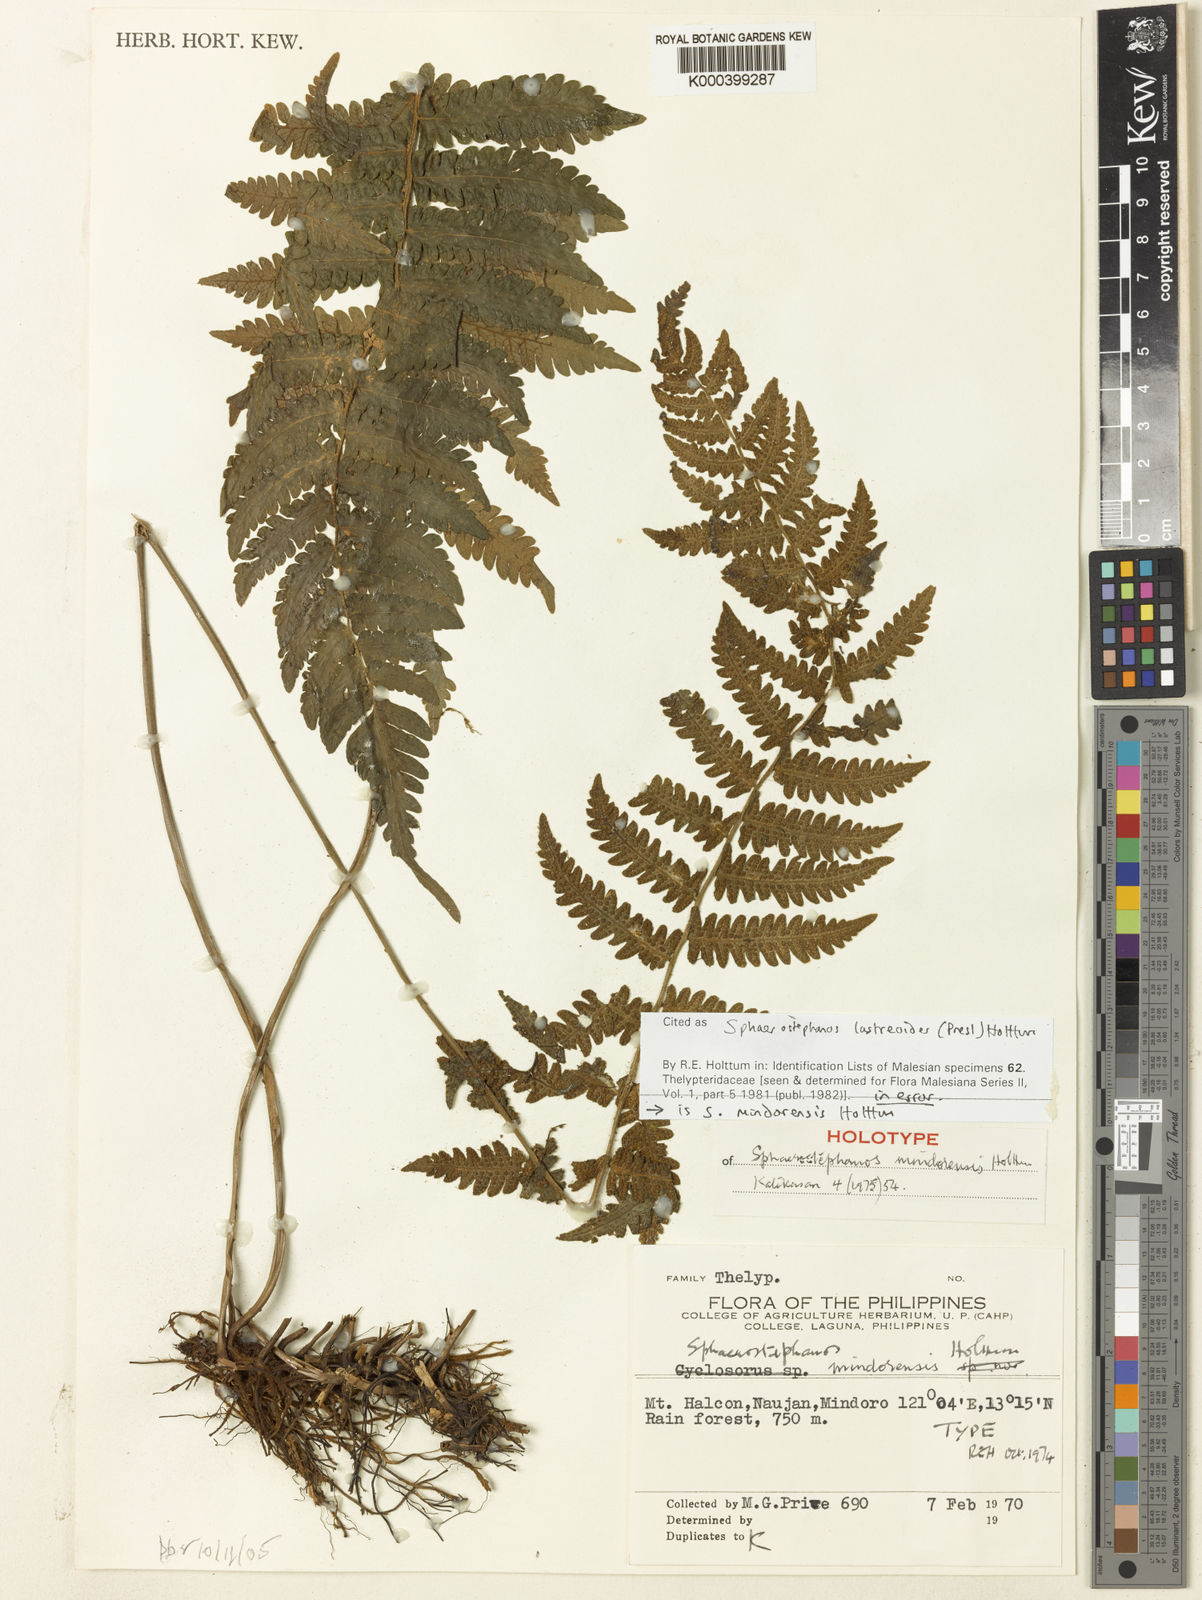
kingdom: Plantae
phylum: Tracheophyta
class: Polypodiopsida
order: Polypodiales
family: Thelypteridaceae
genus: Sphaerostephanos
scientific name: Sphaerostephanos mindorensis
